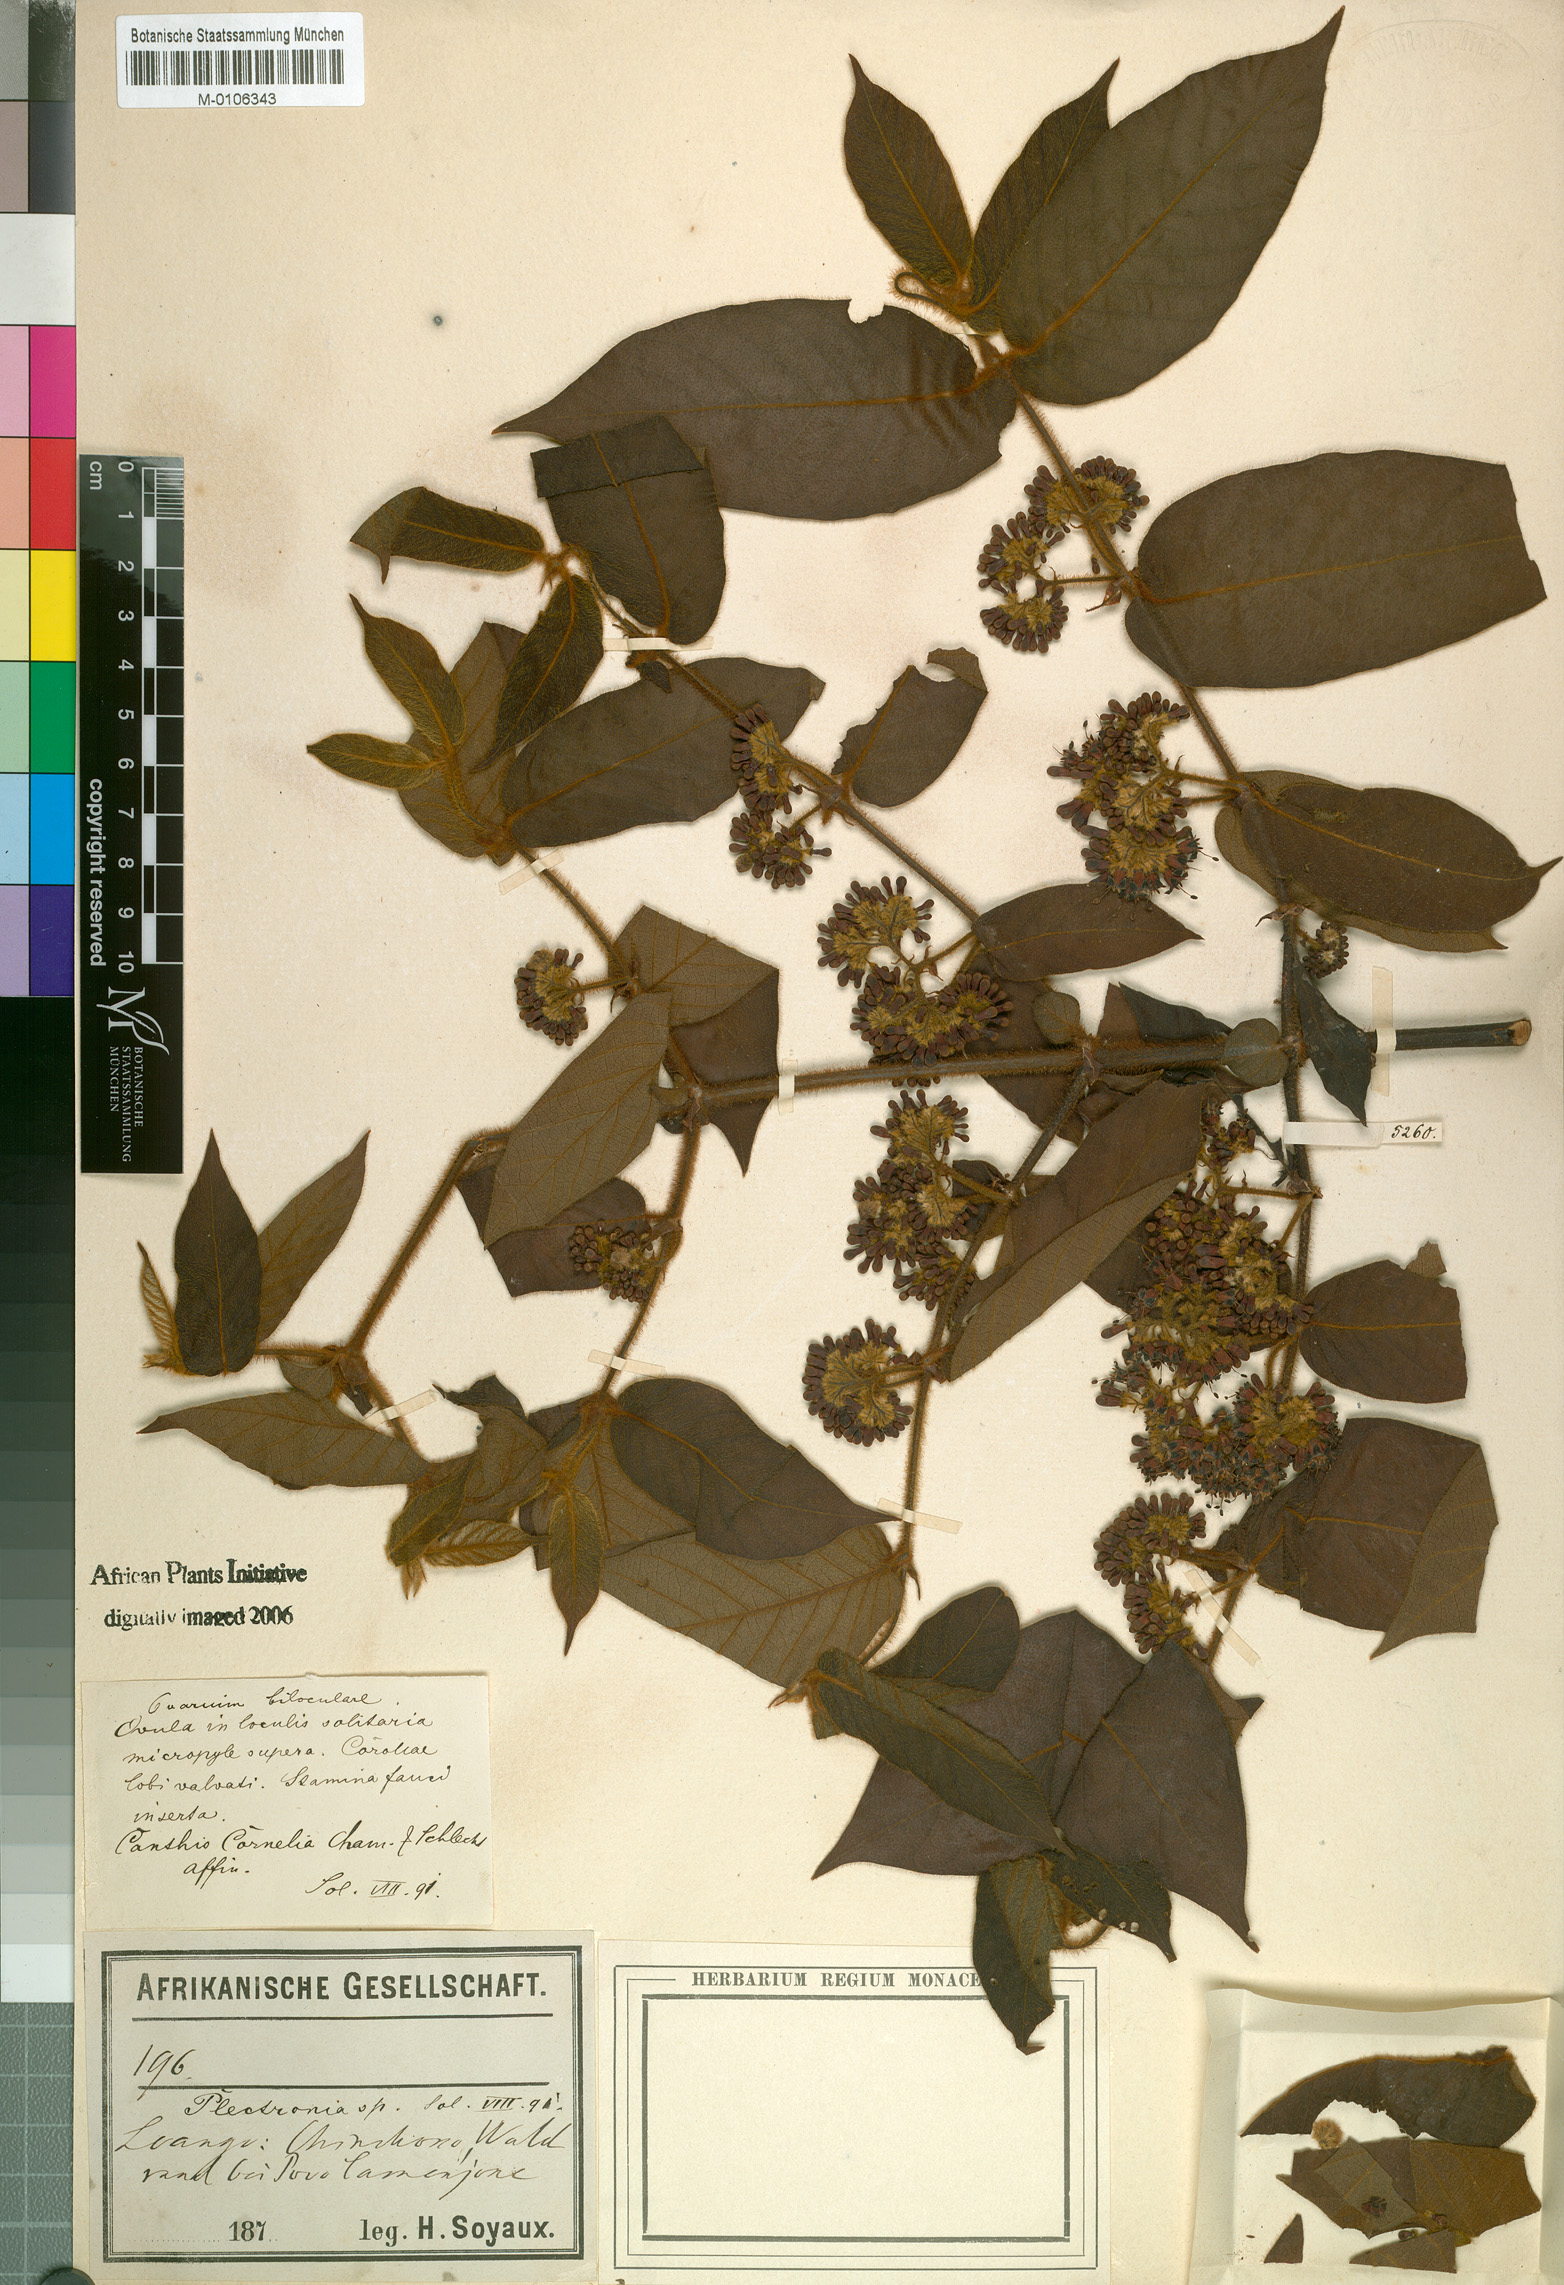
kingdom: Plantae
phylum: Tracheophyta
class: Magnoliopsida
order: Gentianales
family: Rubiaceae
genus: Keetia
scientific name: Keetia gueinzii
